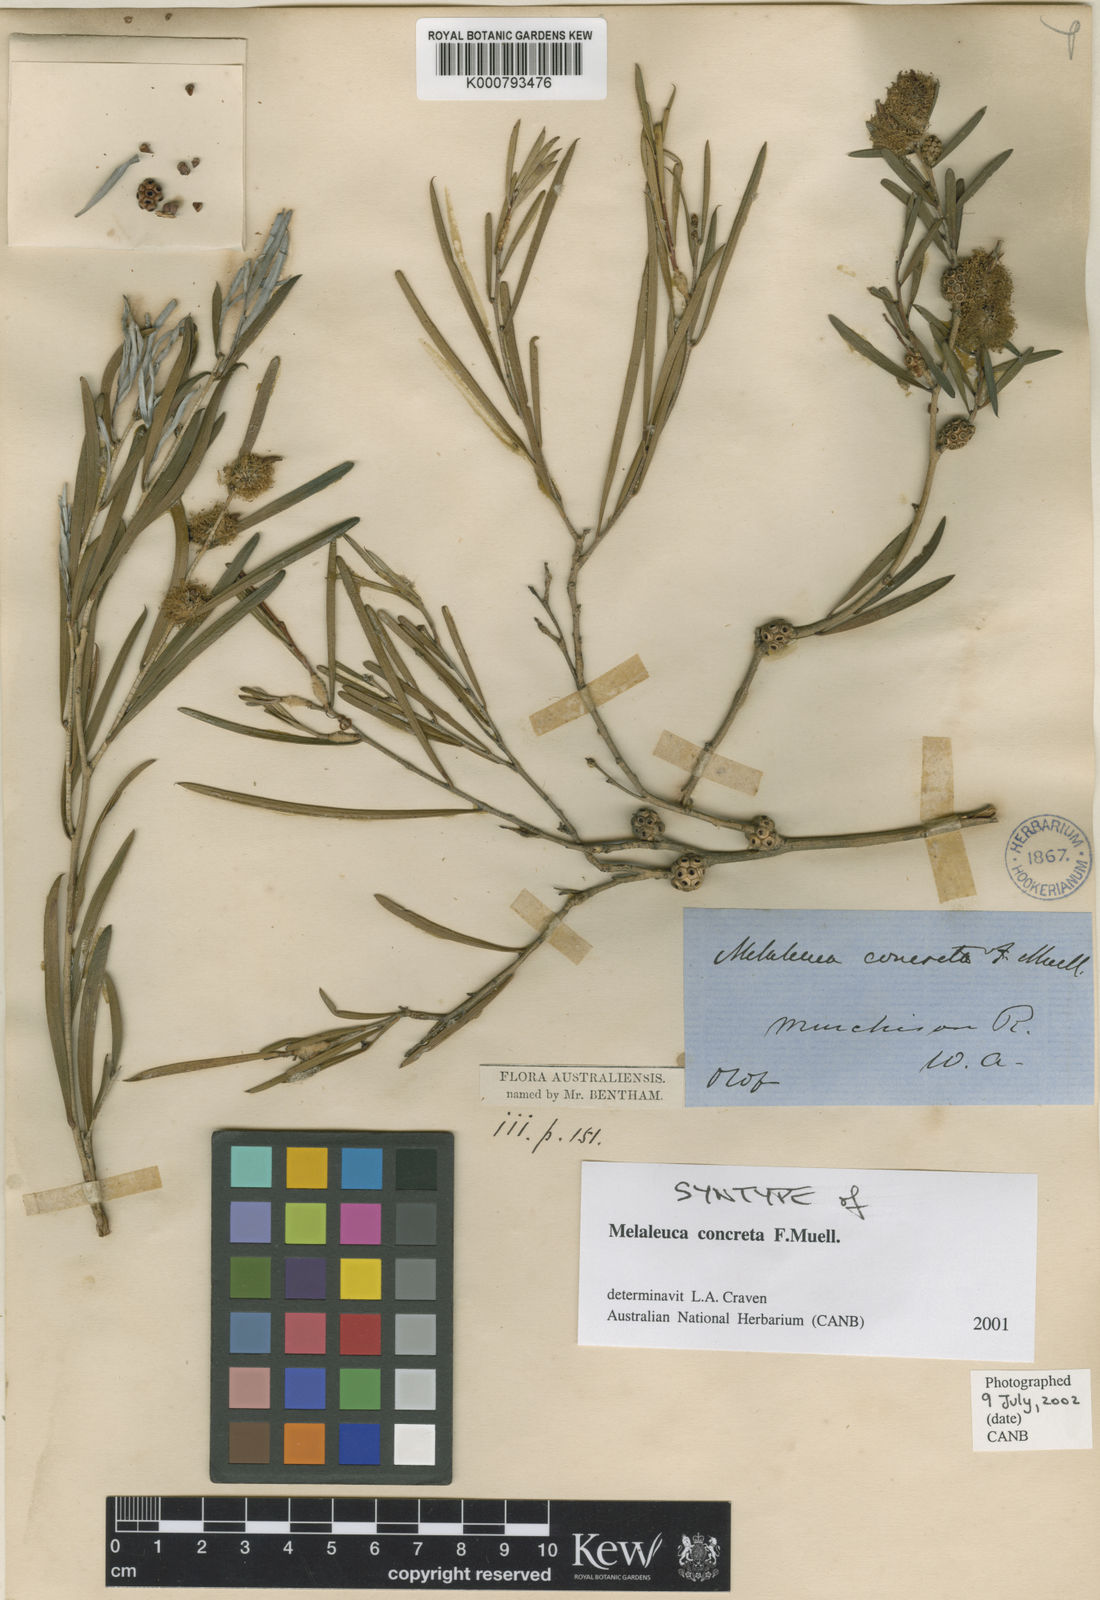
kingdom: Plantae
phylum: Tracheophyta
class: Magnoliopsida
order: Myrtales
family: Myrtaceae
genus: Melaleuca
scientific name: Melaleuca concreta
